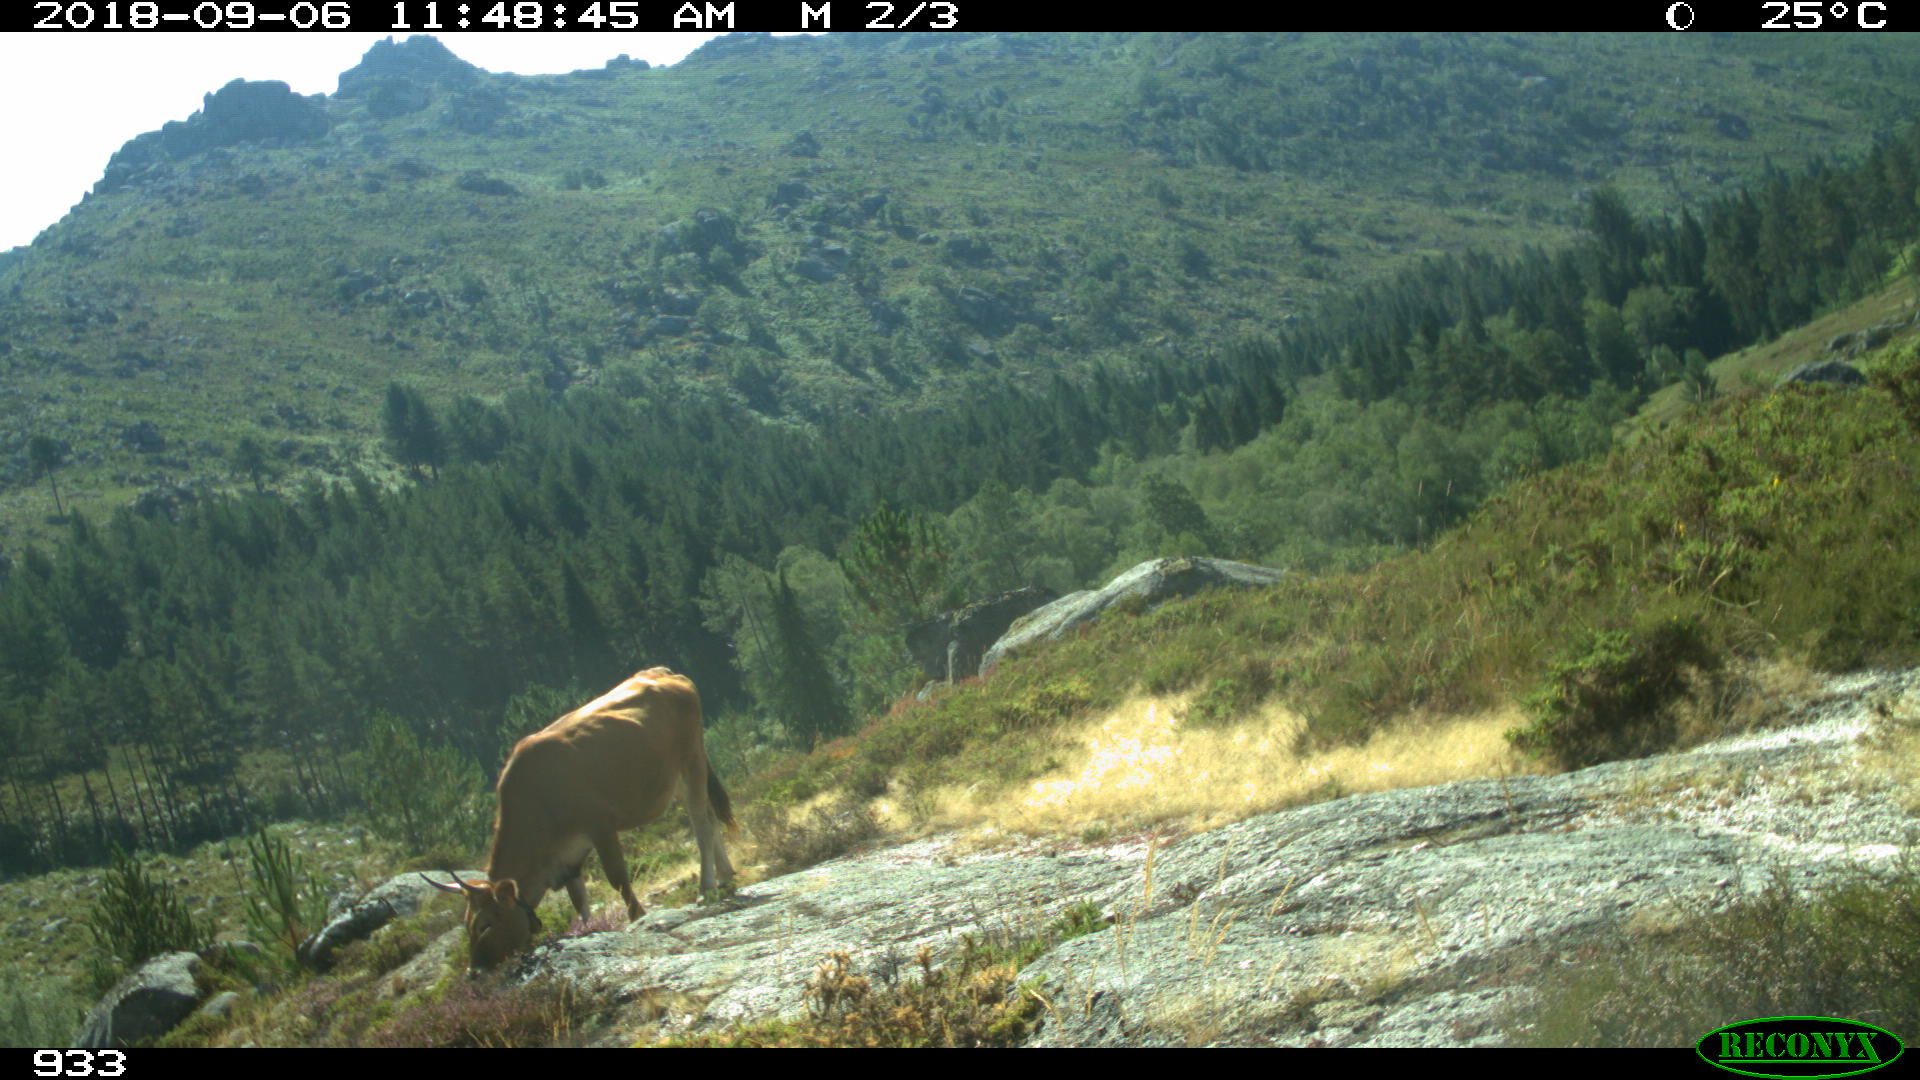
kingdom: Animalia
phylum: Chordata
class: Mammalia
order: Artiodactyla
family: Bovidae
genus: Bos
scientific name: Bos taurus
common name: Domesticated cattle
